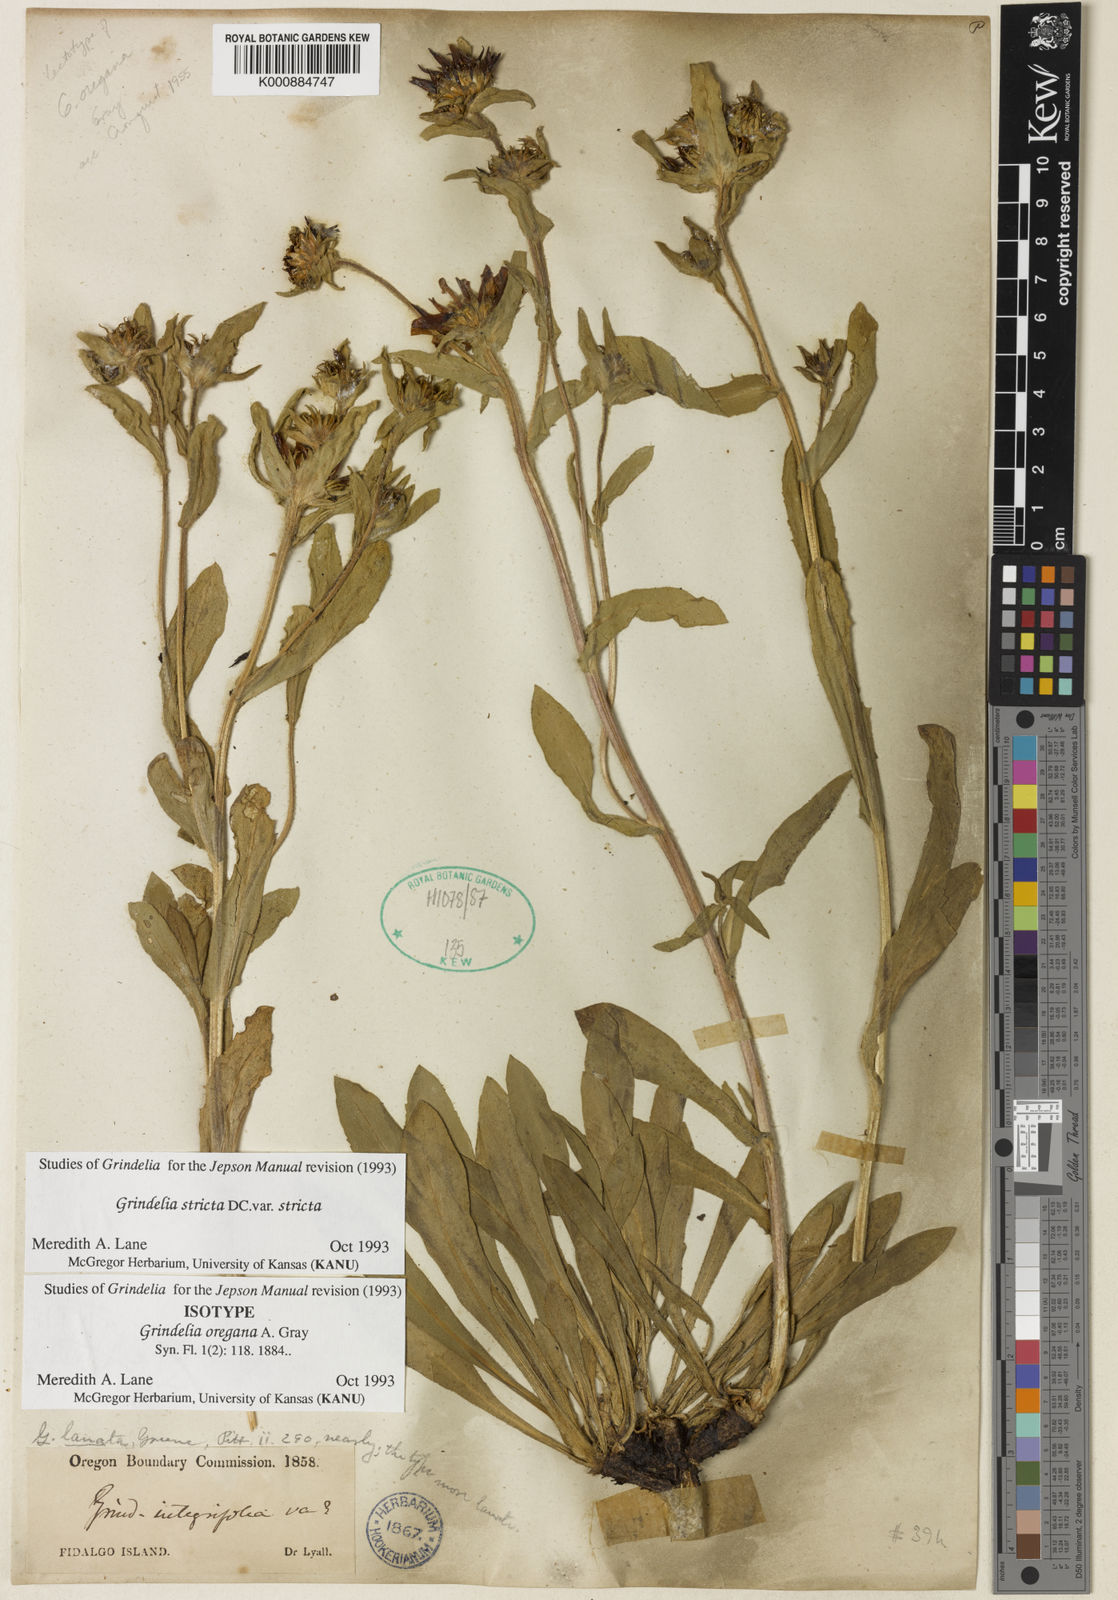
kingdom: Plantae
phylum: Tracheophyta
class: Magnoliopsida
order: Asterales
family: Asteraceae
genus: Grindelia
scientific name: Grindelia hirsutula
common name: Hairy gumweed
